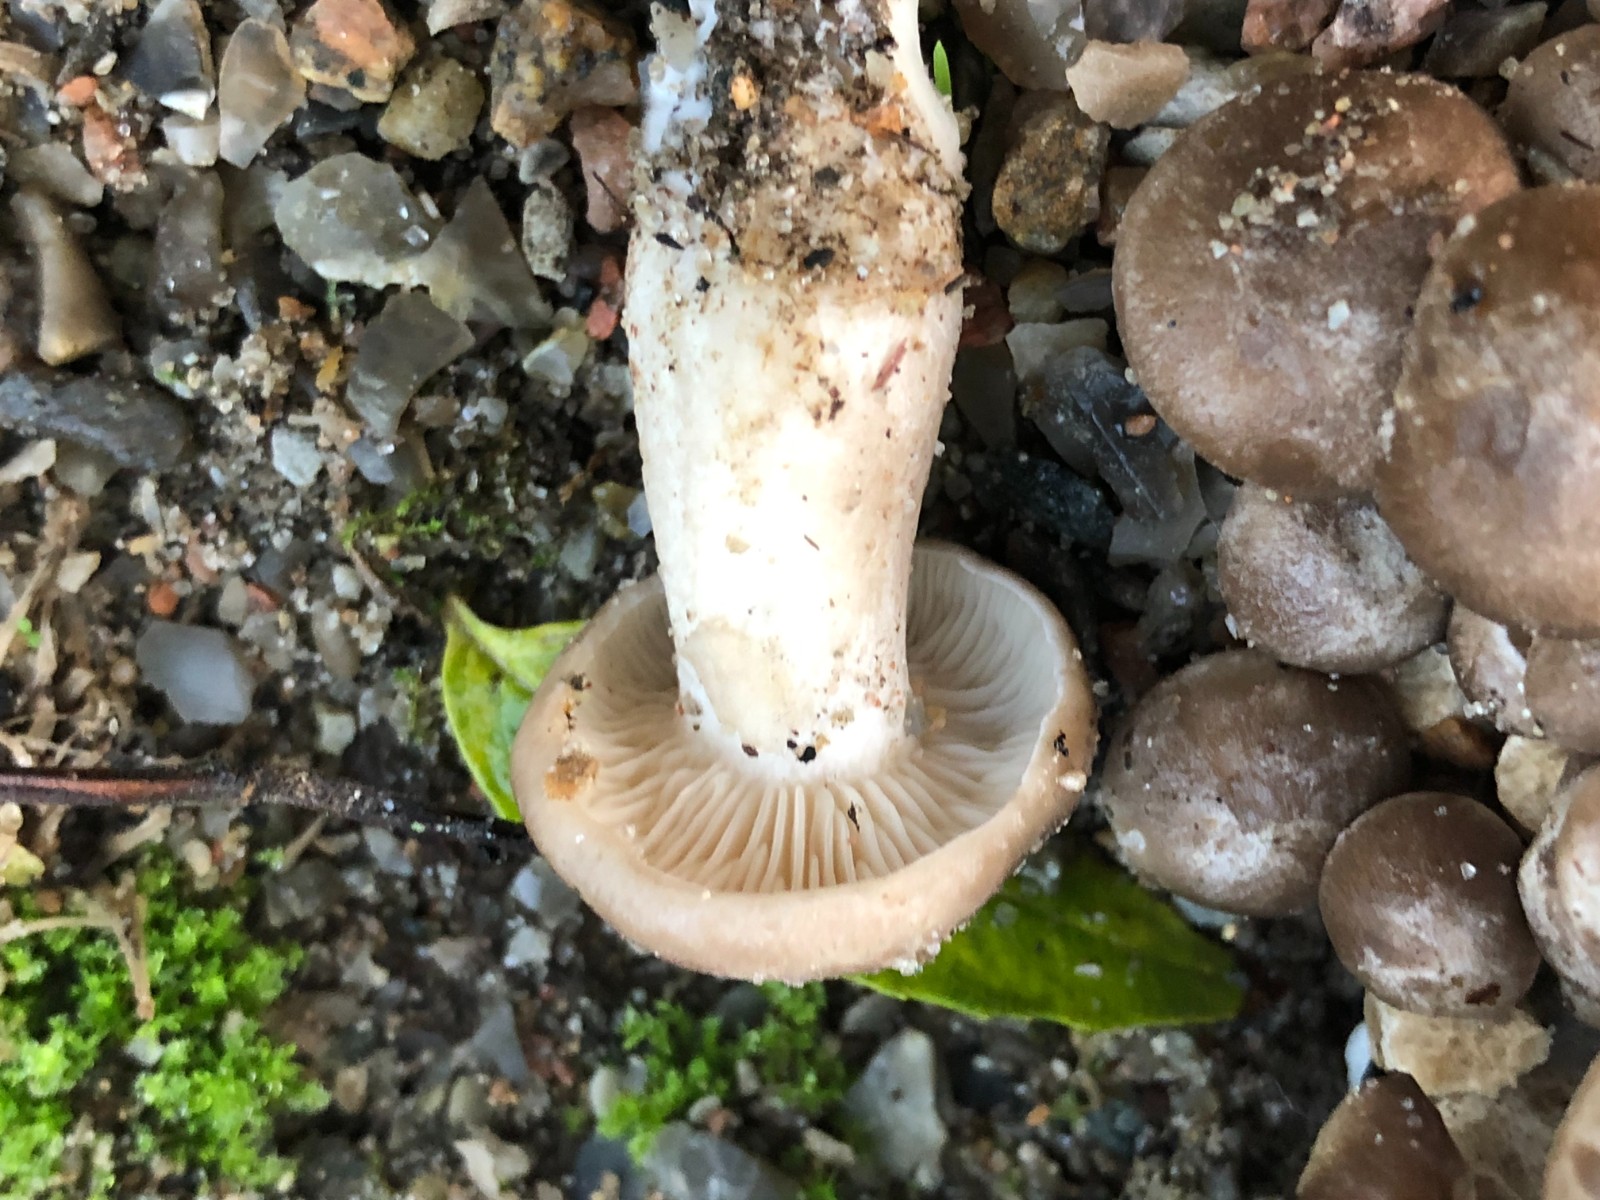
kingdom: Fungi
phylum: Basidiomycota
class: Agaricomycetes
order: Agaricales
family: Lyophyllaceae
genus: Lyophyllum
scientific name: Lyophyllum decastes
